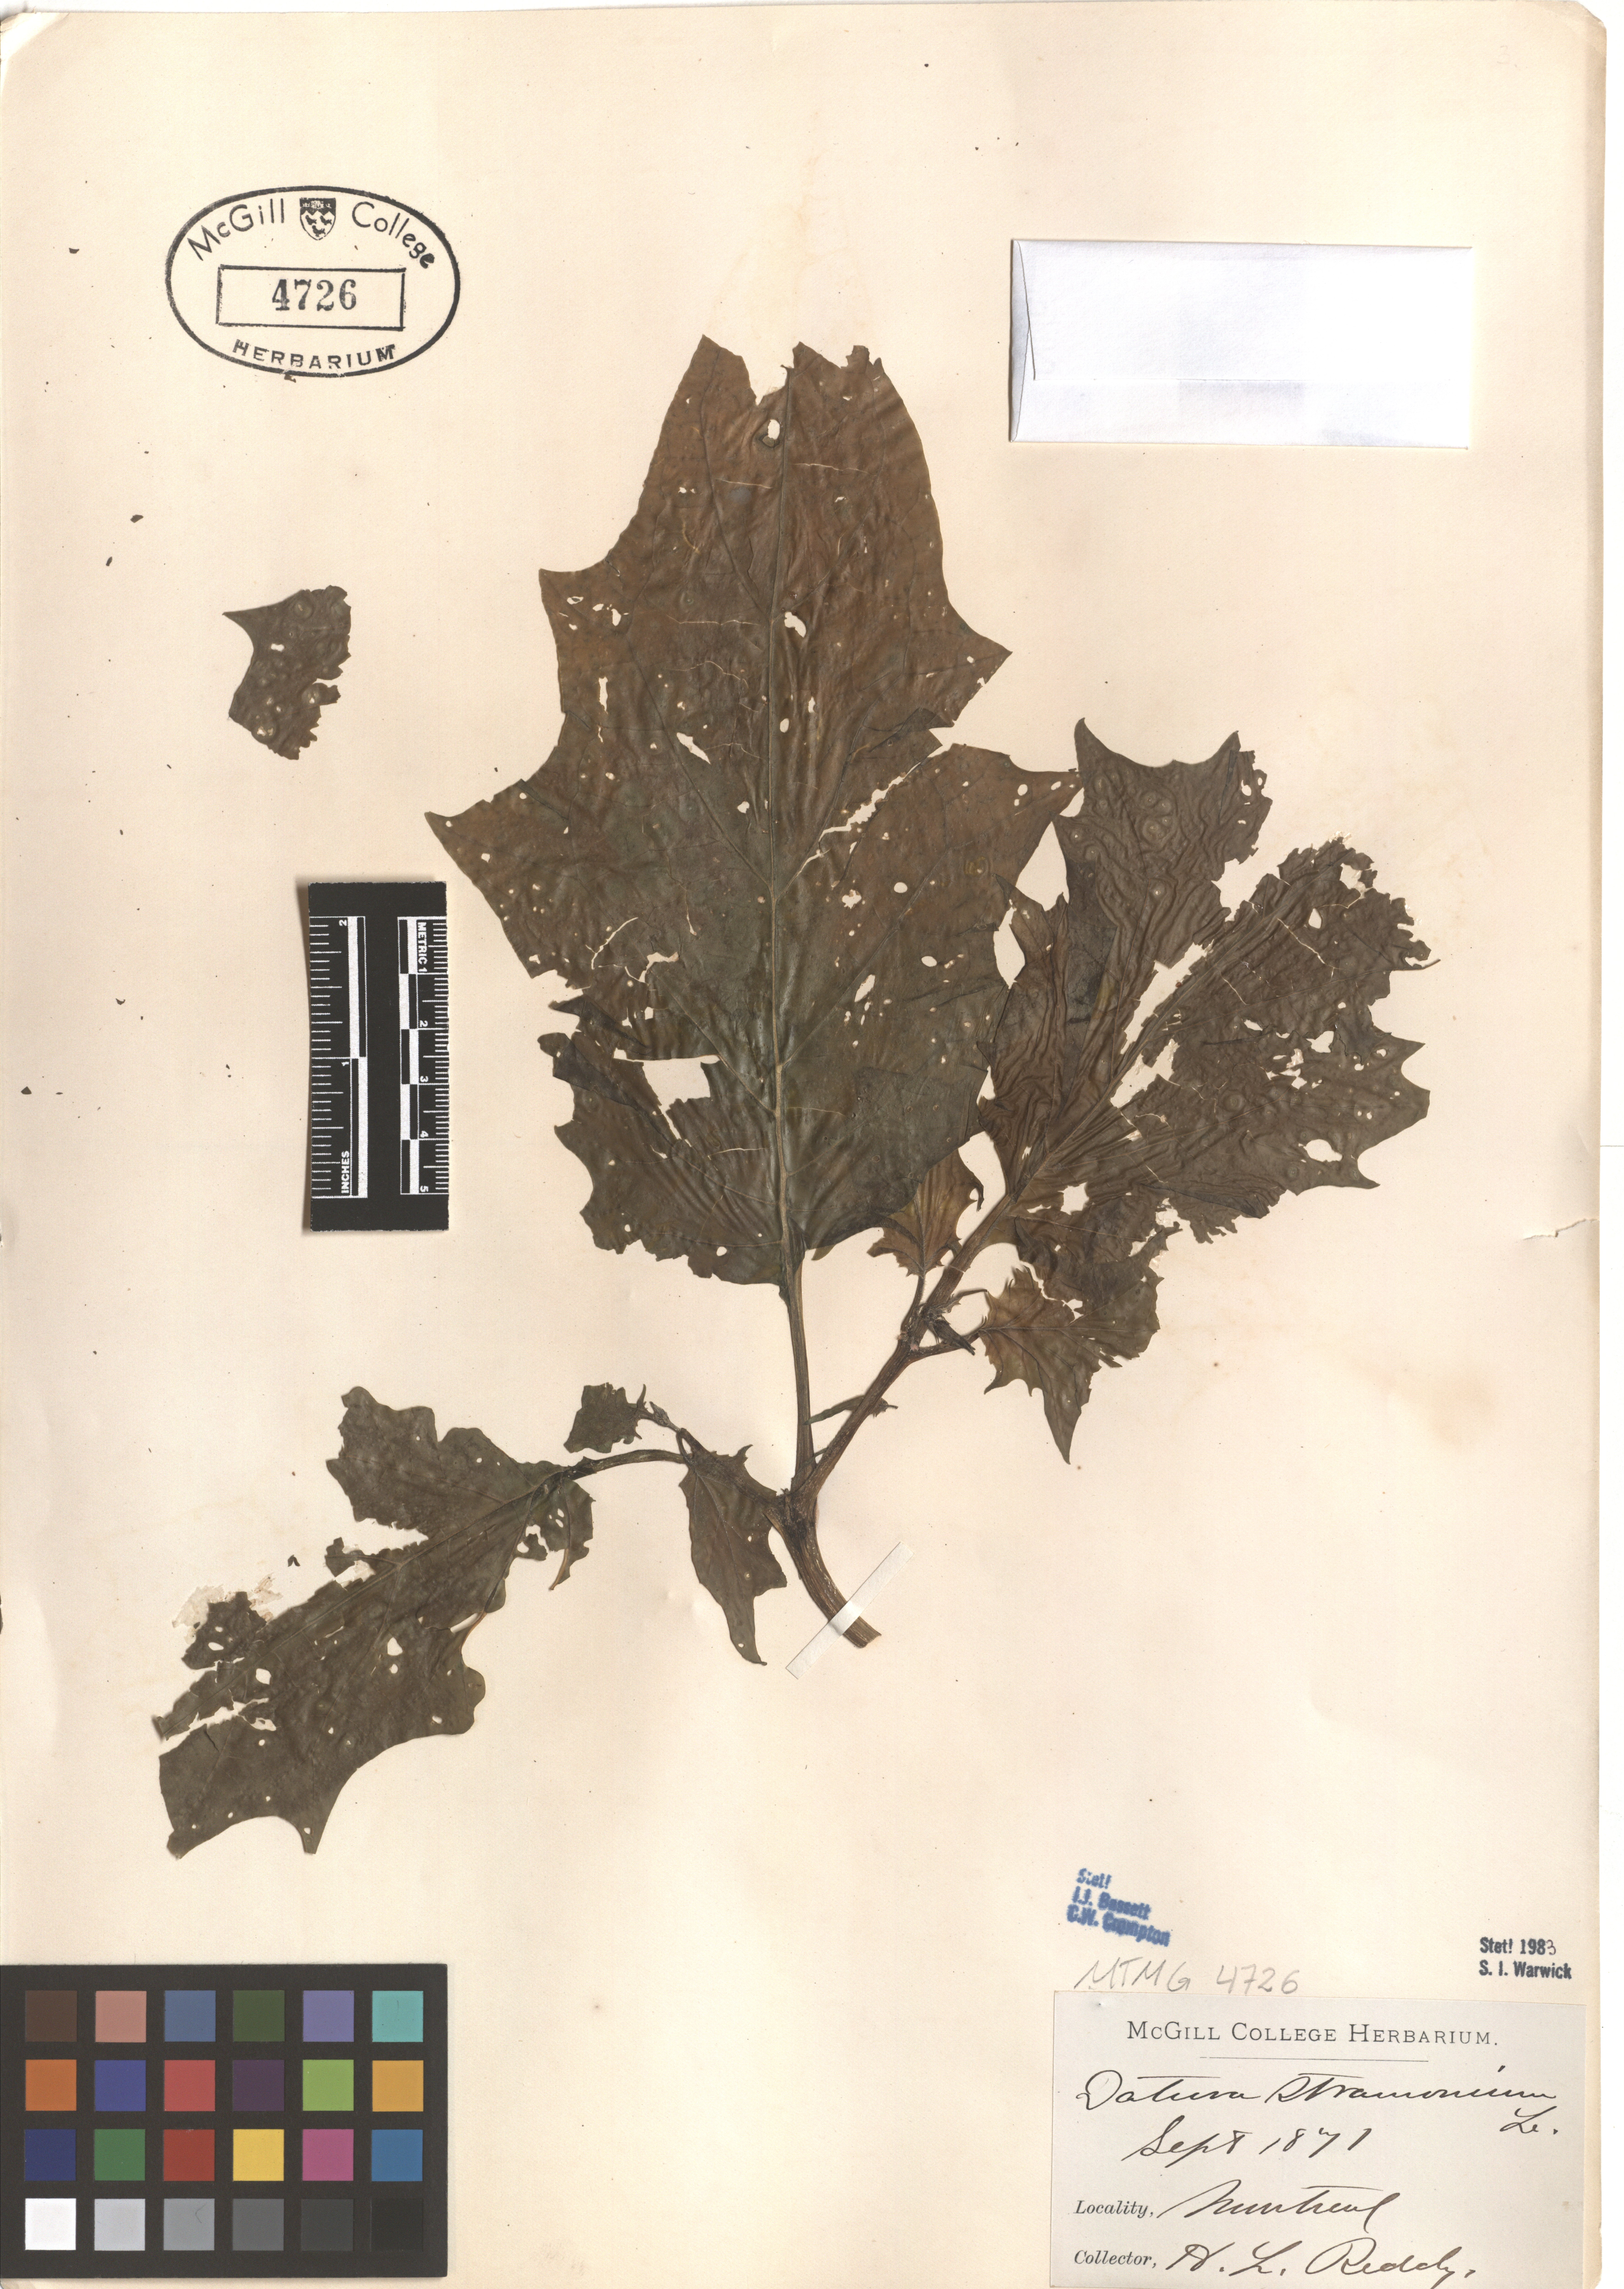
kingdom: Plantae
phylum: Tracheophyta
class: Magnoliopsida
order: Solanales
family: Solanaceae
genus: Datura
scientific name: Datura stramonium
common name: Thorn-apple
